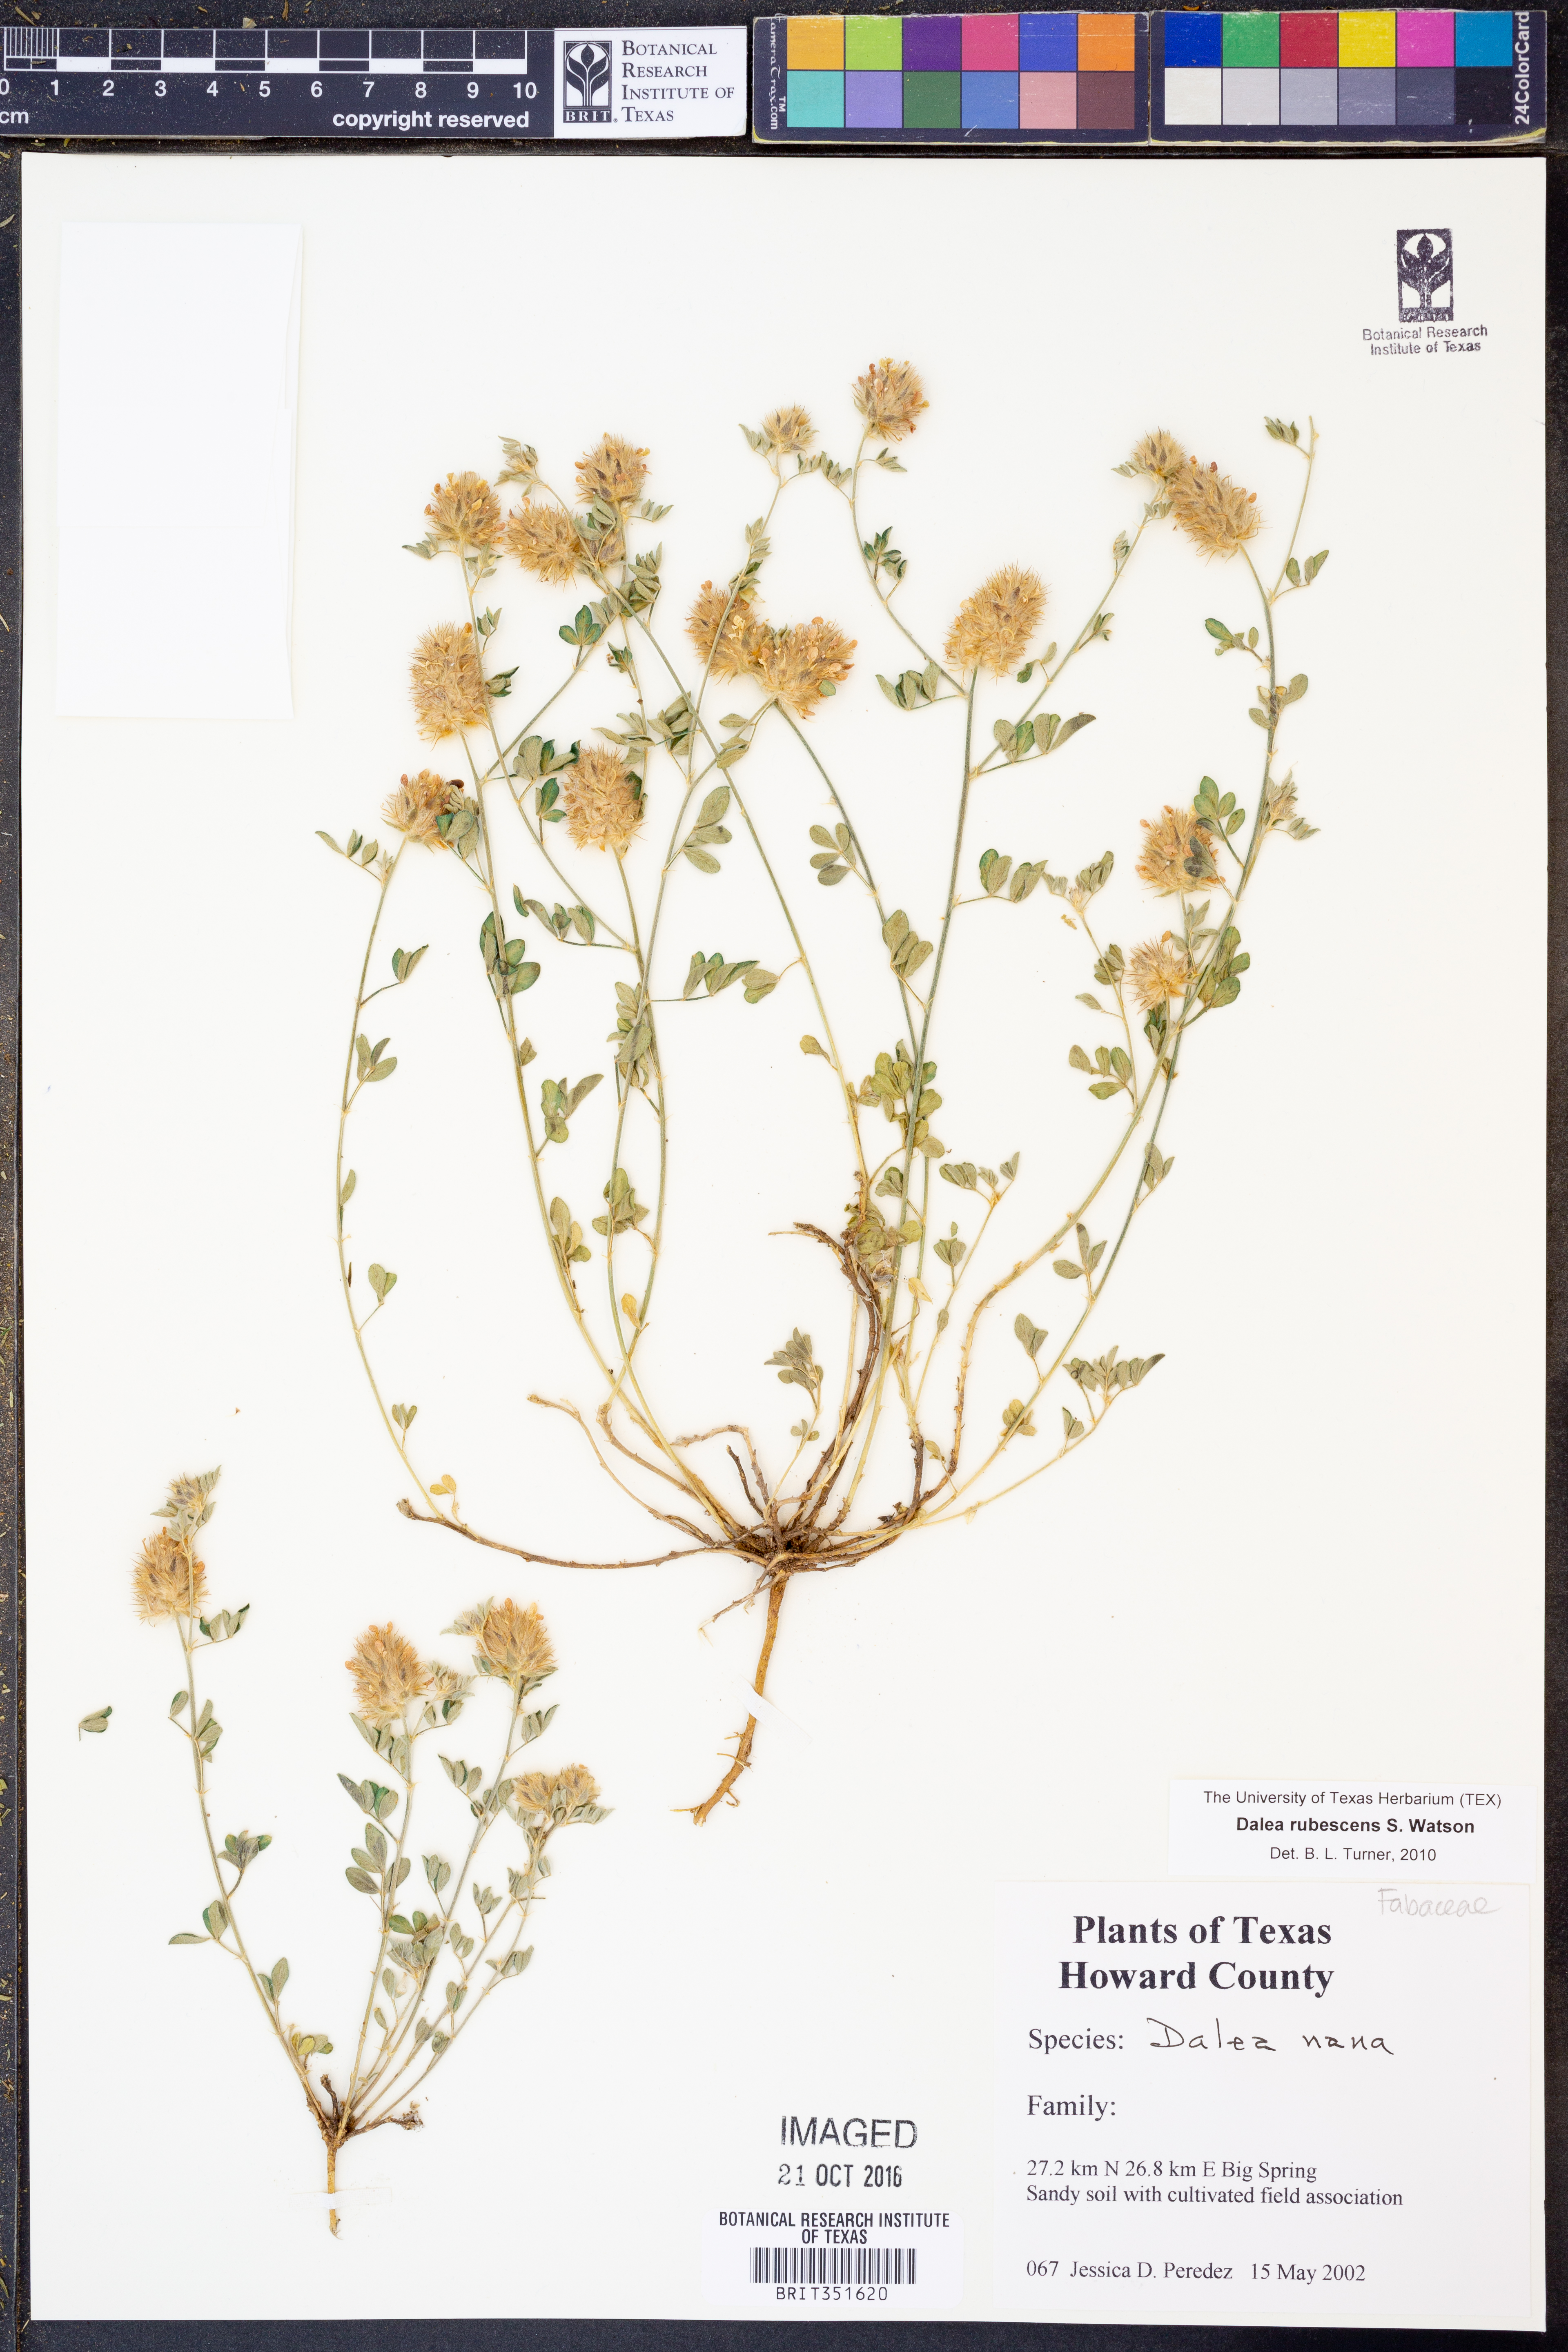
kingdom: Plantae
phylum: Tracheophyta
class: Magnoliopsida
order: Fabales
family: Fabaceae
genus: Dalea
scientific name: Dalea rubescens
